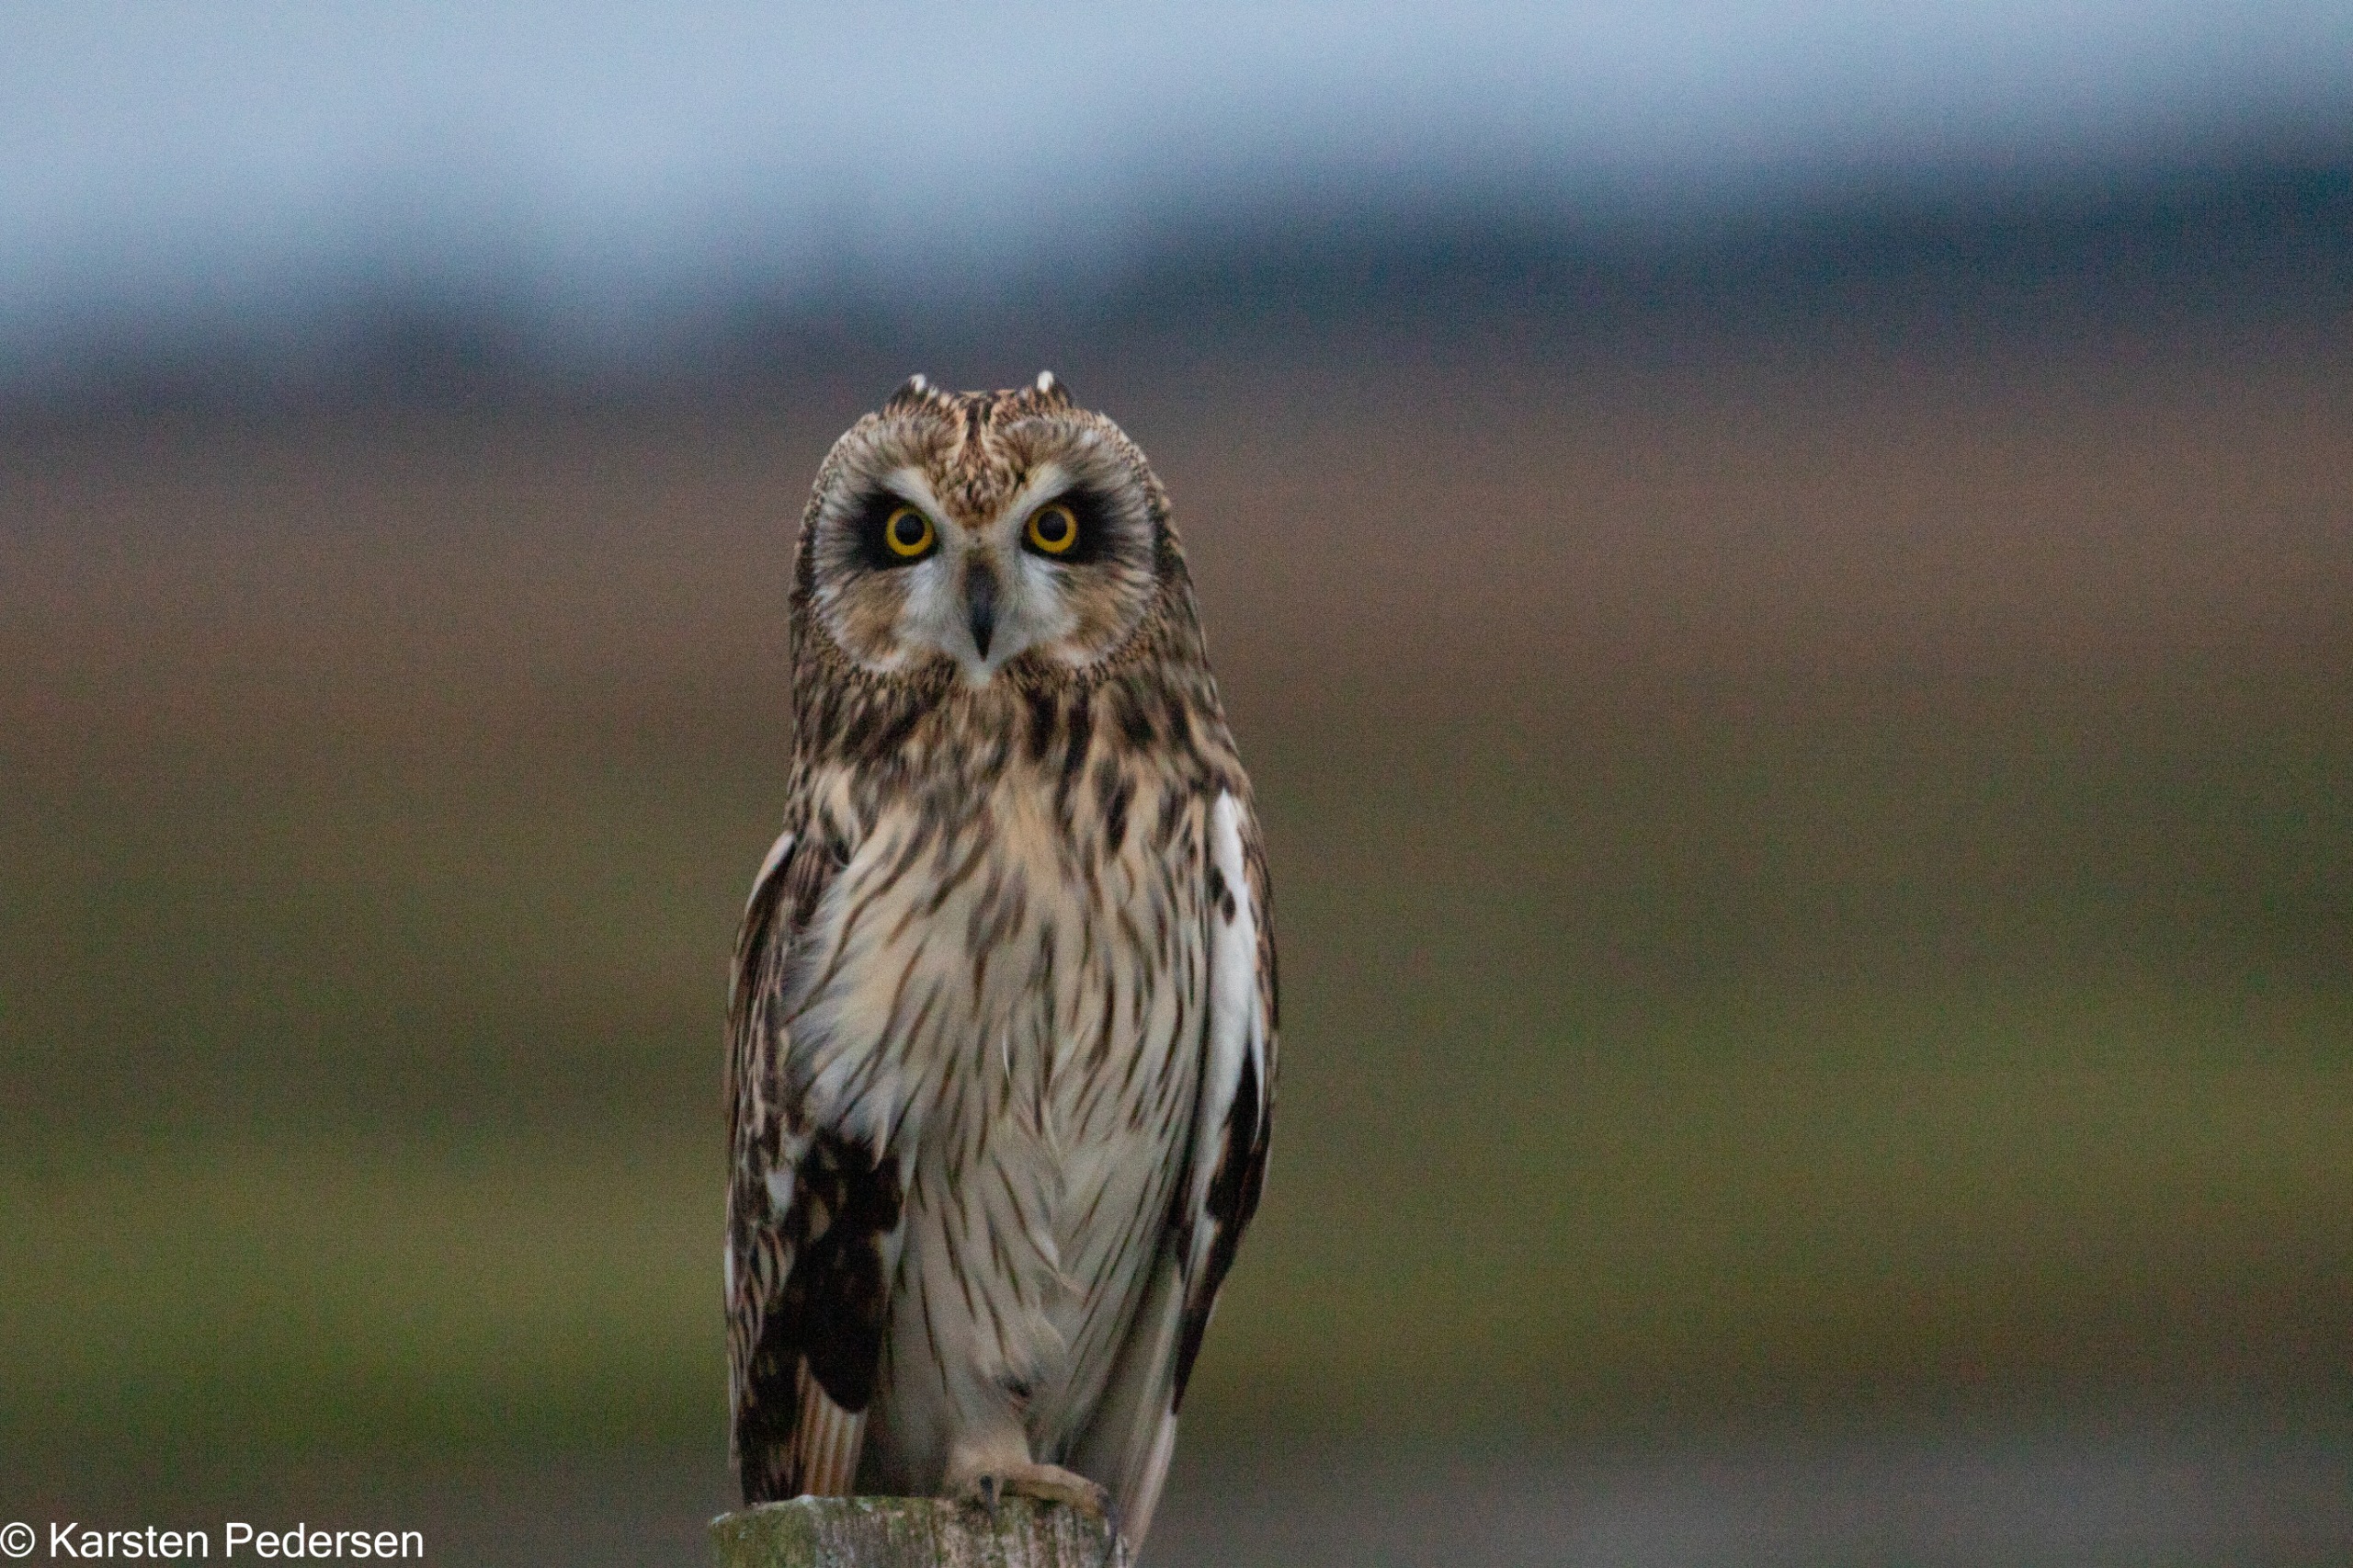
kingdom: Animalia
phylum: Chordata
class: Aves
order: Strigiformes
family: Strigidae
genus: Asio
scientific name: Asio flammeus
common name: Mosehornugle
